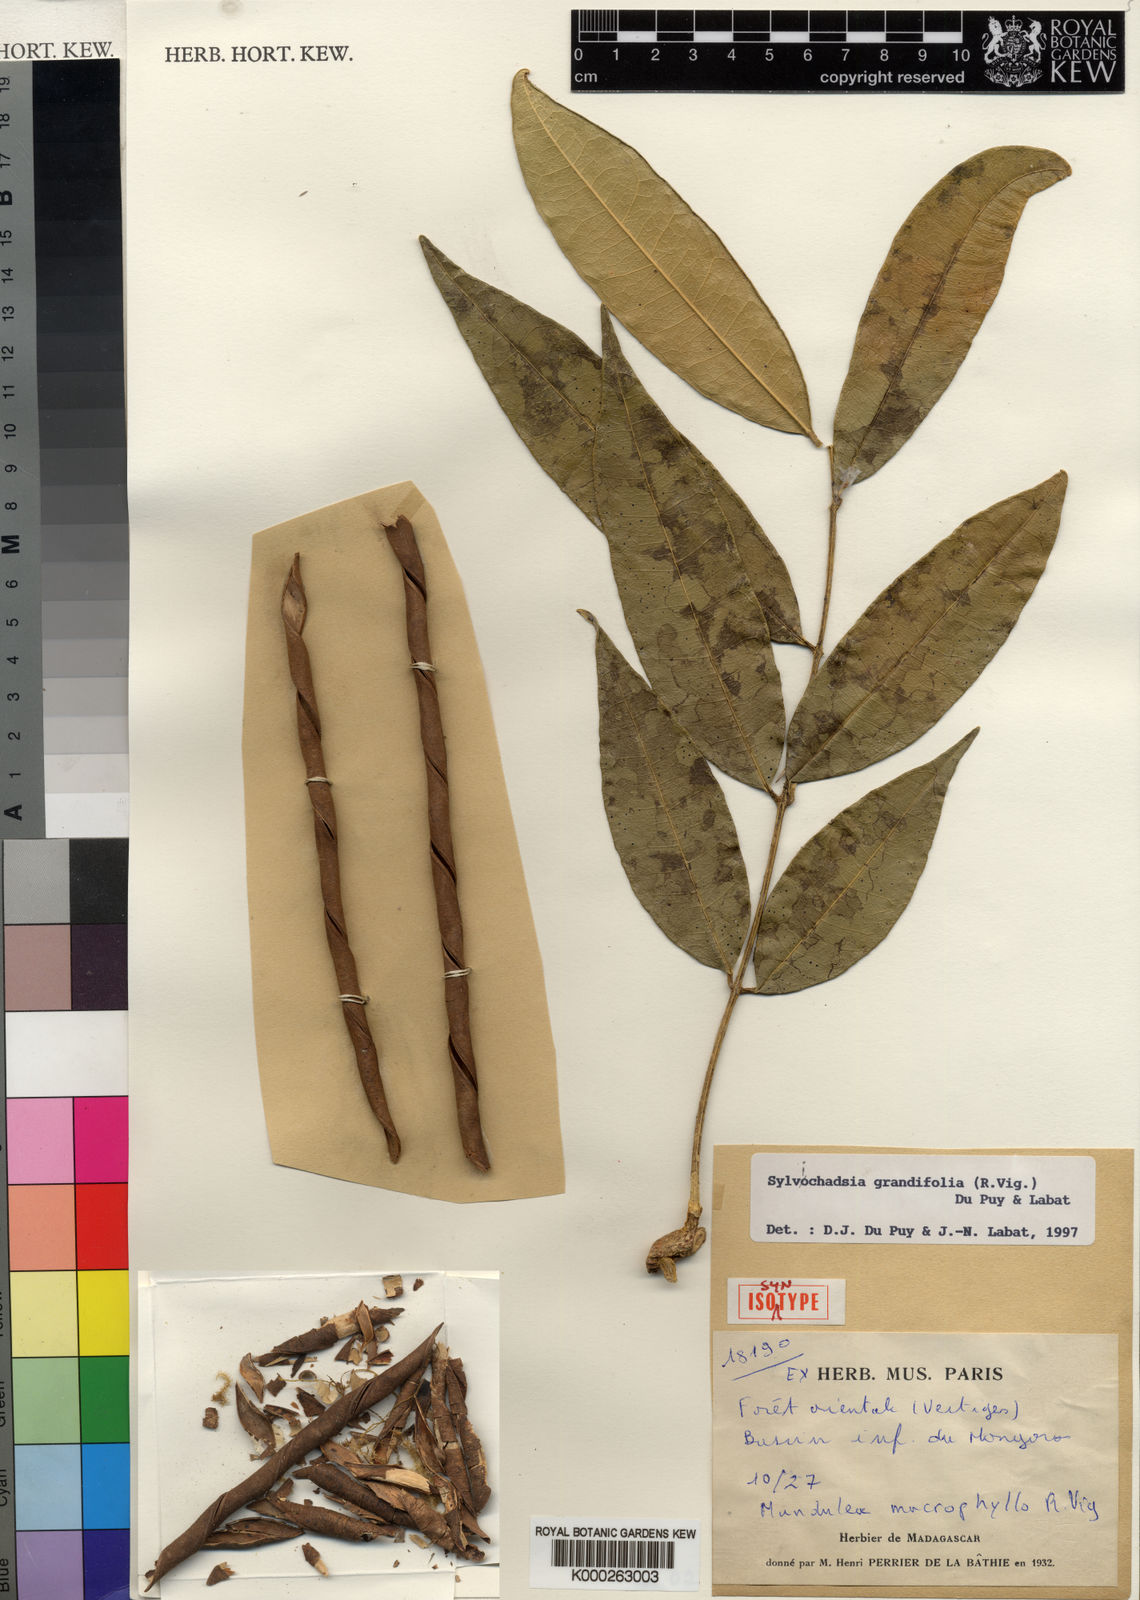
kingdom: Plantae
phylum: Tracheophyta
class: Magnoliopsida
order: Fabales
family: Fabaceae
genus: Sylvichadsia
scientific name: Sylvichadsia grandifolia
